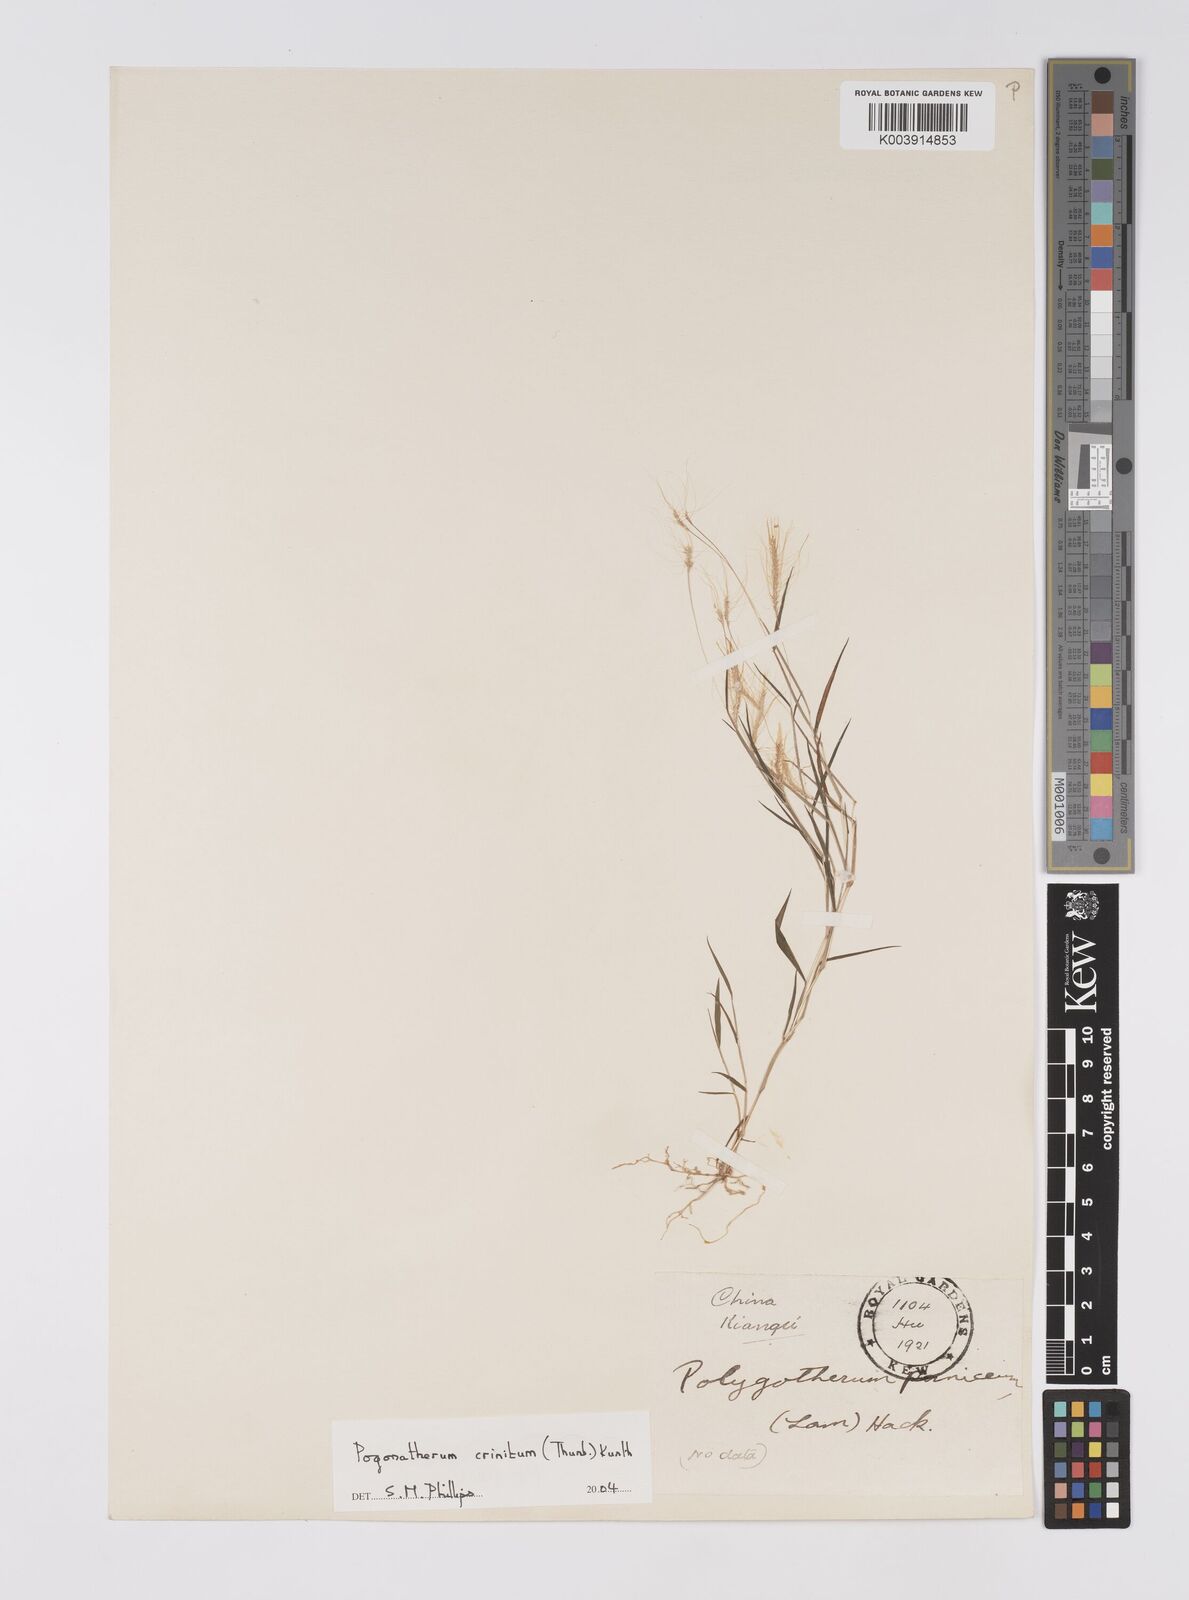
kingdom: Plantae
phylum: Tracheophyta
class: Liliopsida
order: Poales
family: Poaceae
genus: Pogonatherum
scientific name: Pogonatherum crinitum
